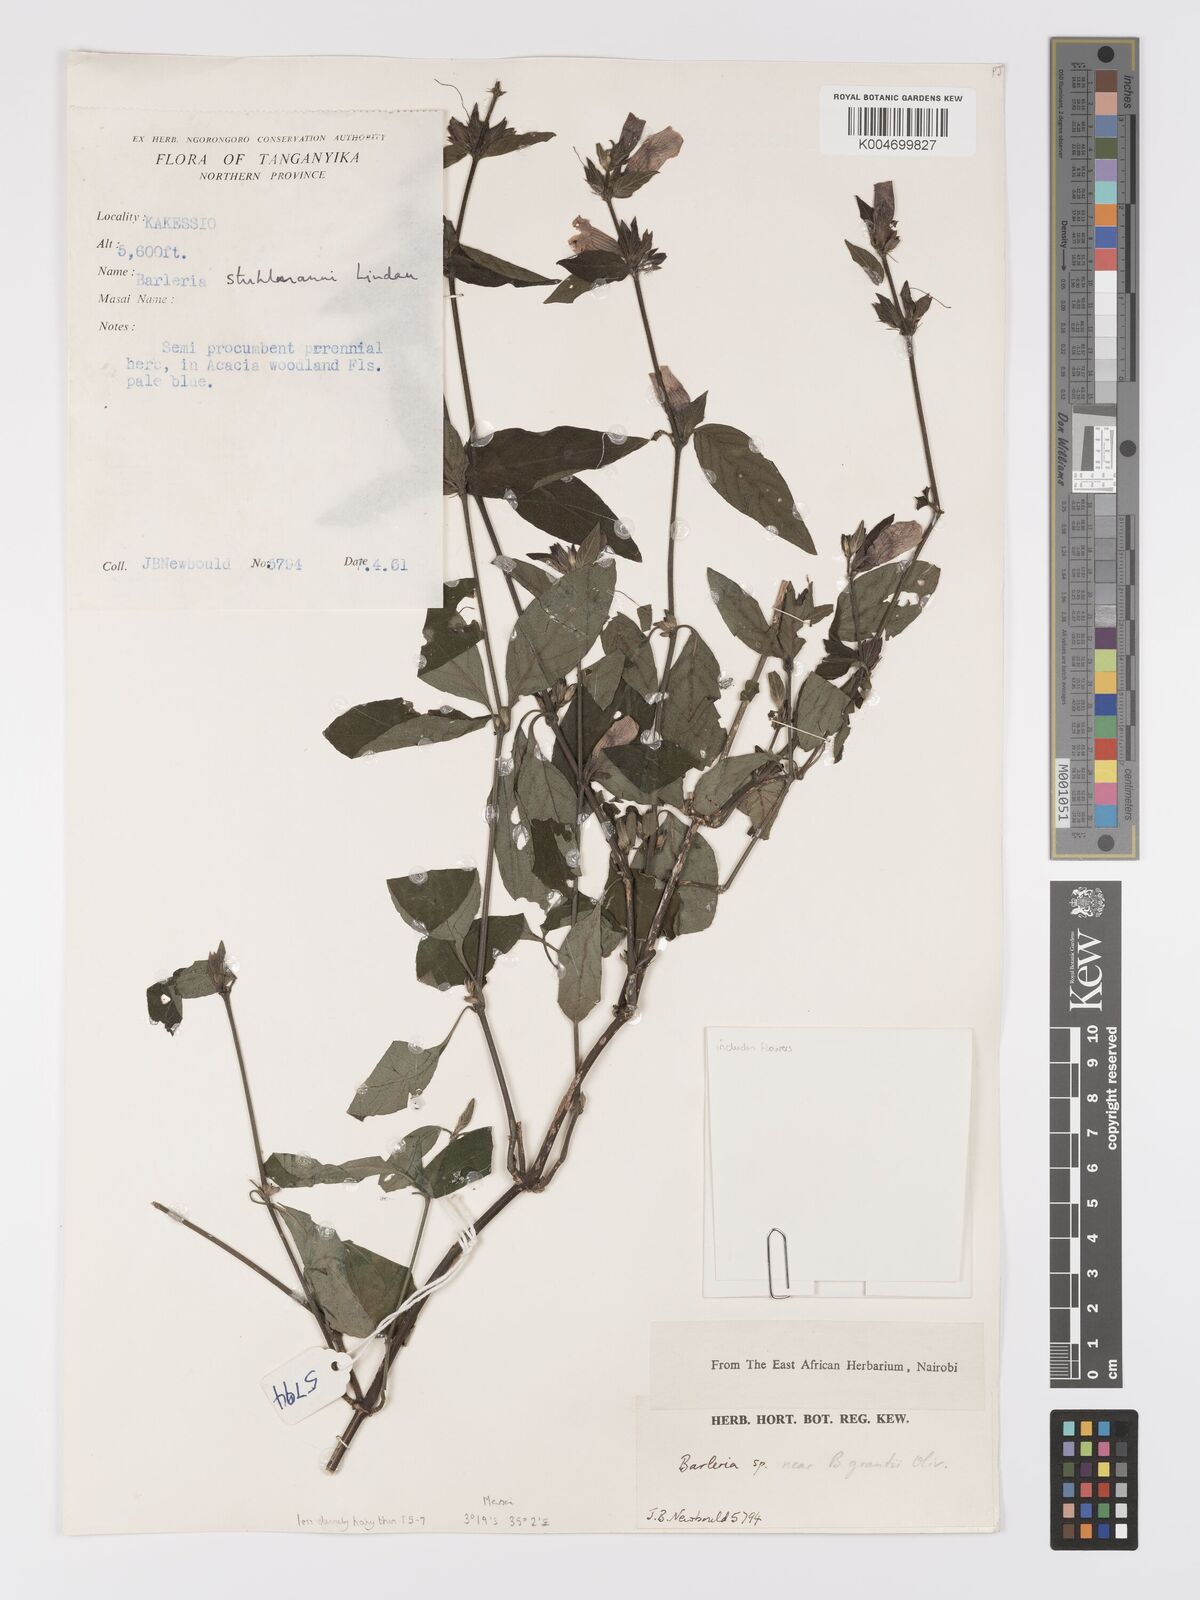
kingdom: Plantae
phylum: Tracheophyta
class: Magnoliopsida
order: Lamiales
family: Acanthaceae
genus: Barleria
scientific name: Barleria ventricosa
